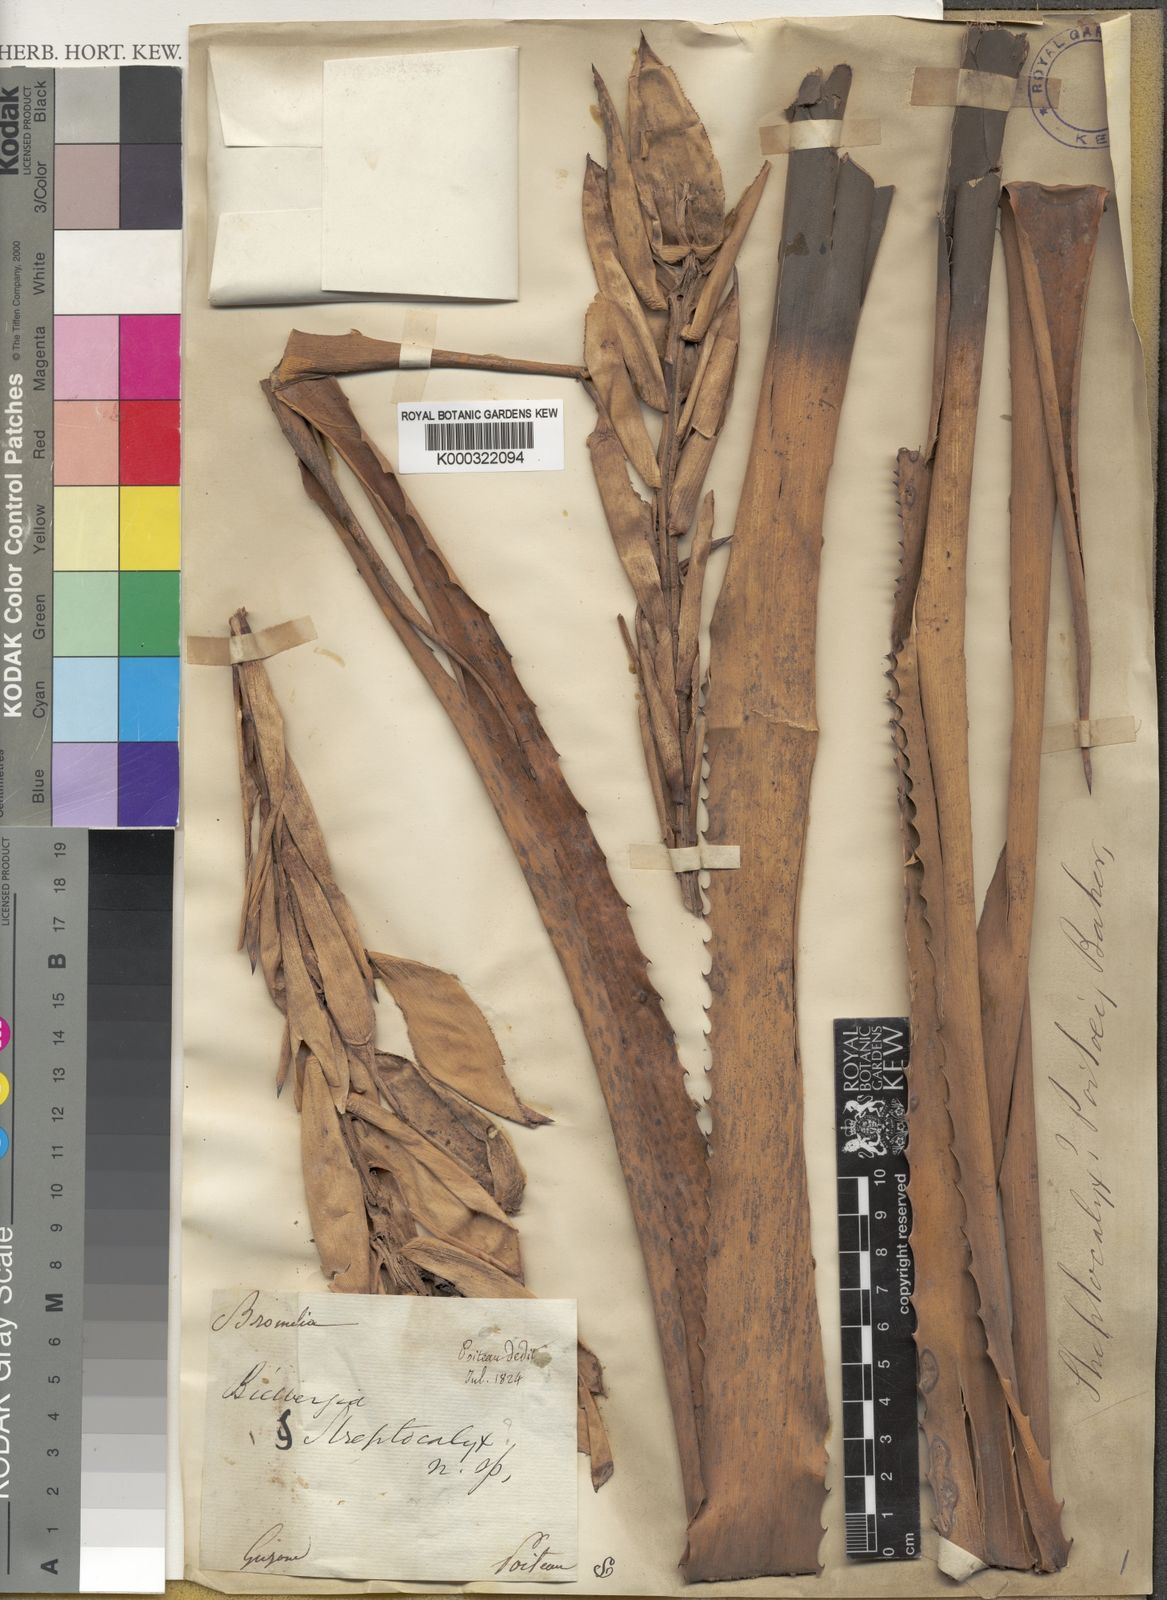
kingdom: Plantae
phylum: Tracheophyta
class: Liliopsida
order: Poales
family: Bromeliaceae
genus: Aechmea
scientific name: Aechmea poitaei
